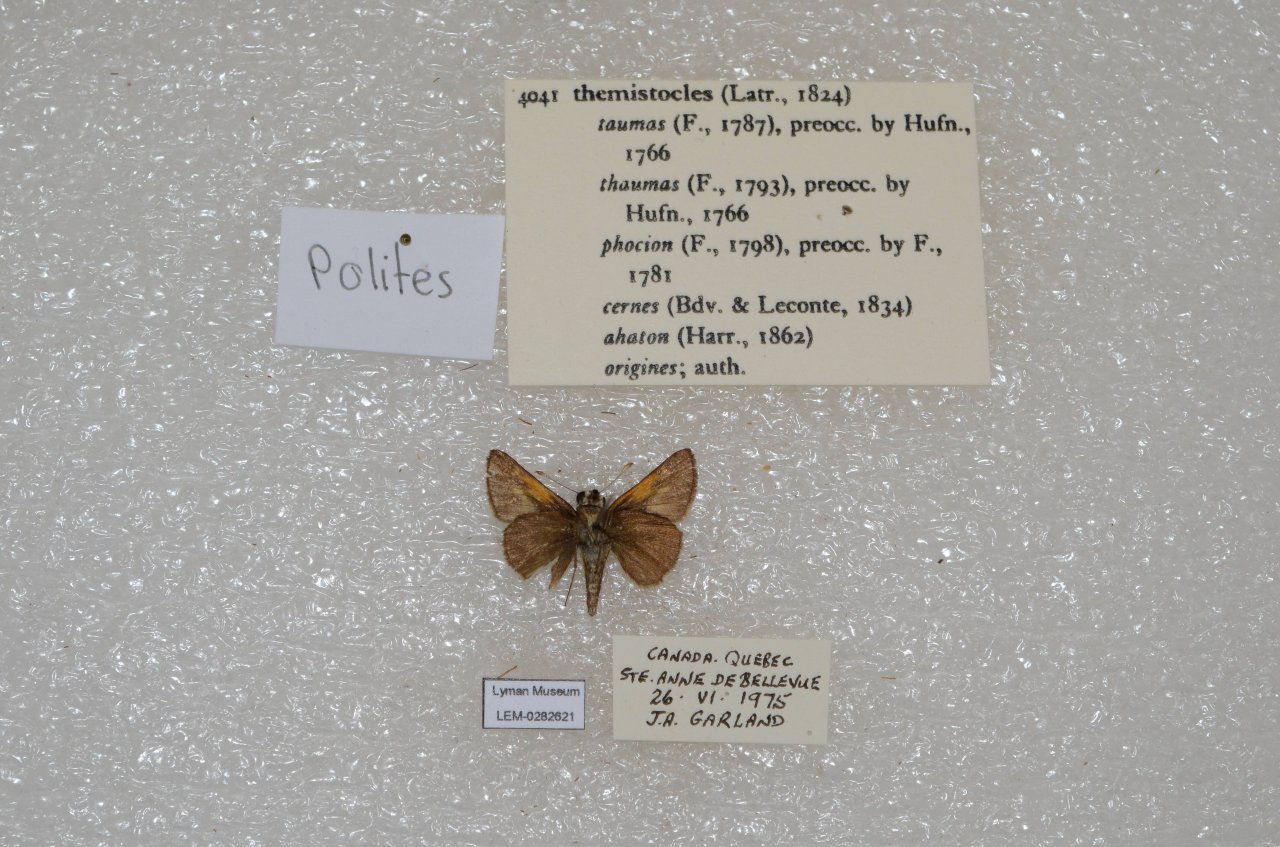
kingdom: Animalia
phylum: Arthropoda
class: Insecta
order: Lepidoptera
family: Hesperiidae
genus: Polites
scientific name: Polites themistocles
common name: Tawny-edged Skipper
